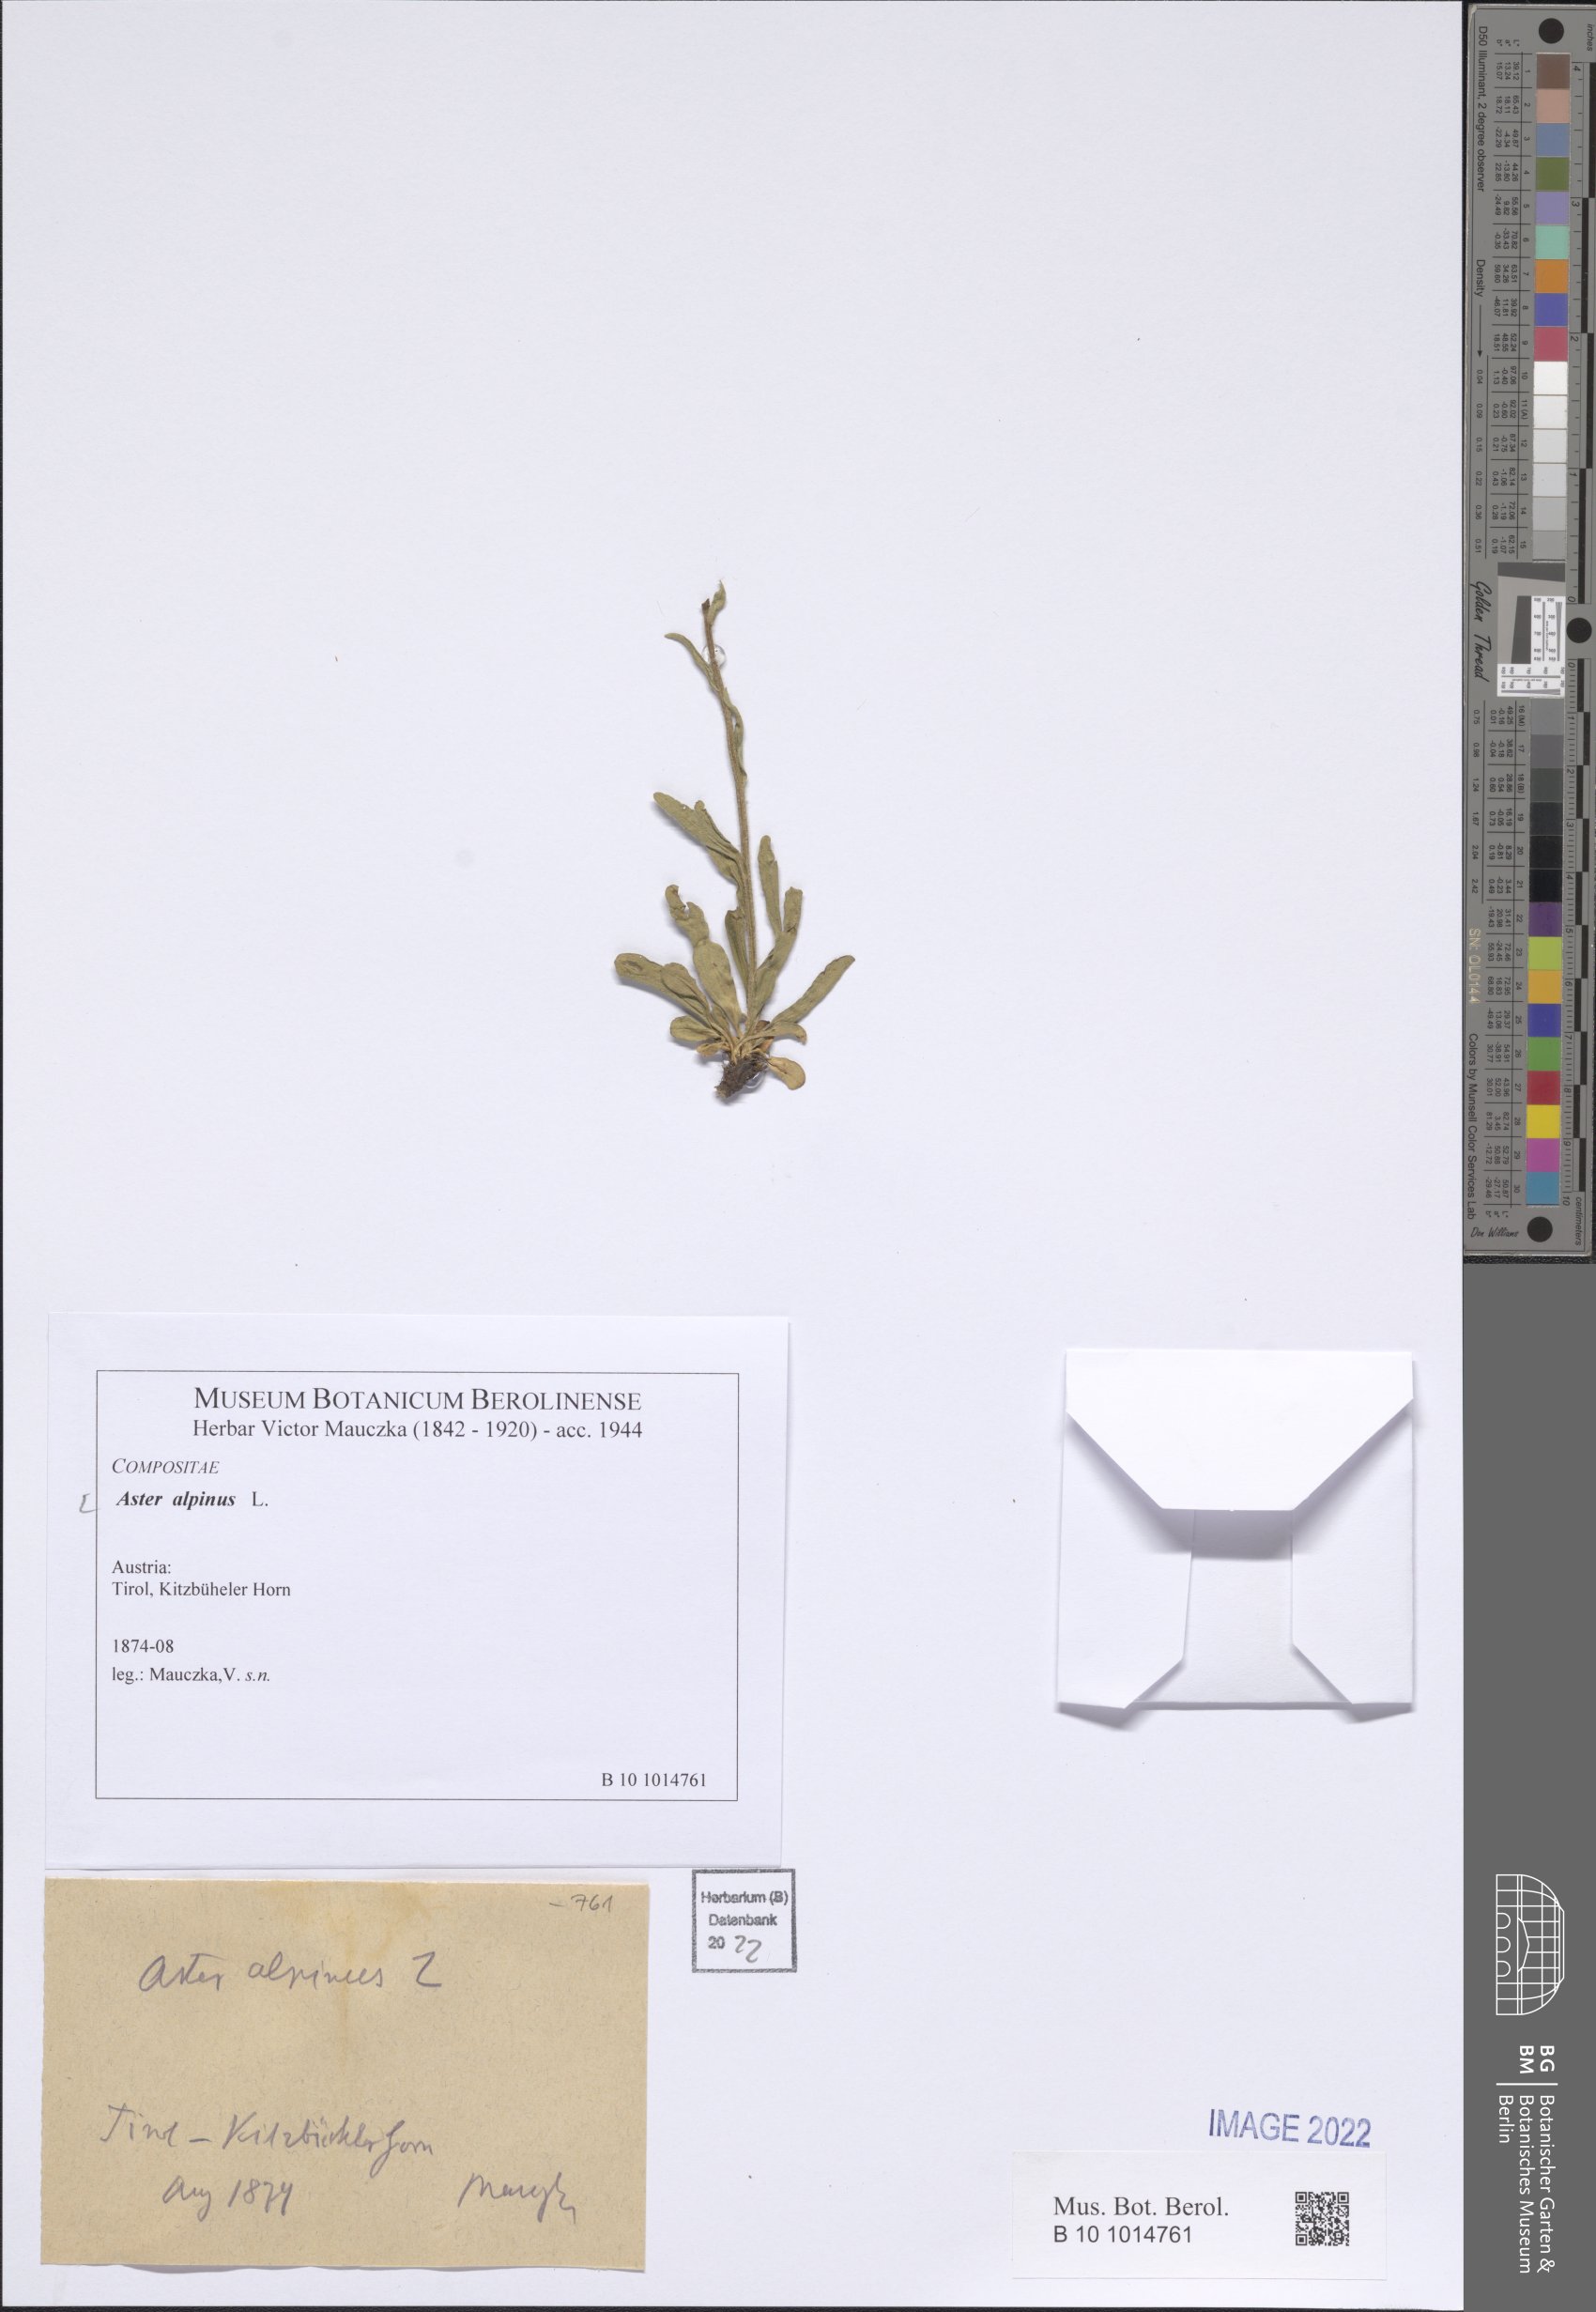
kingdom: Plantae
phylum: Tracheophyta
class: Magnoliopsida
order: Asterales
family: Asteraceae
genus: Aster
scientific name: Aster alpinus
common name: Alpine aster
